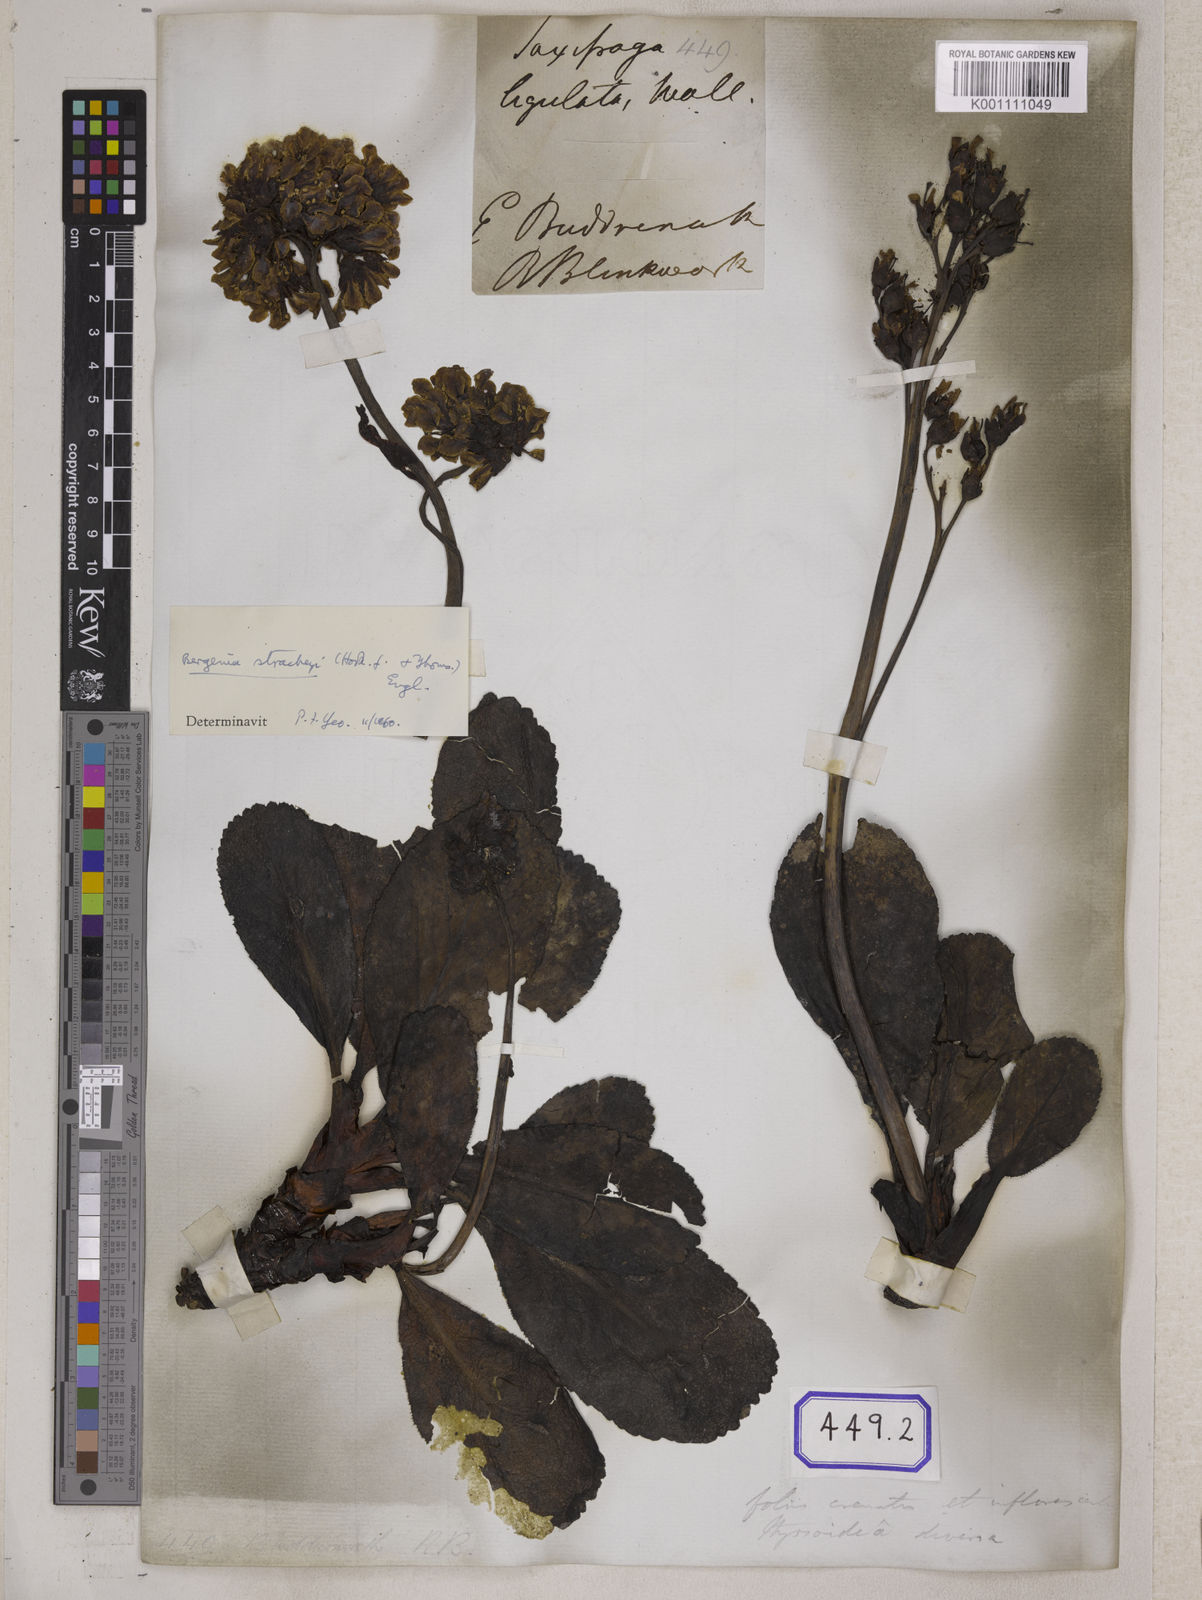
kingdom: Plantae
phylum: Tracheophyta
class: Magnoliopsida
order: Saxifragales
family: Saxifragaceae
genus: Bergenia
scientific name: Bergenia pacumbis
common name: Chinese bergenia
